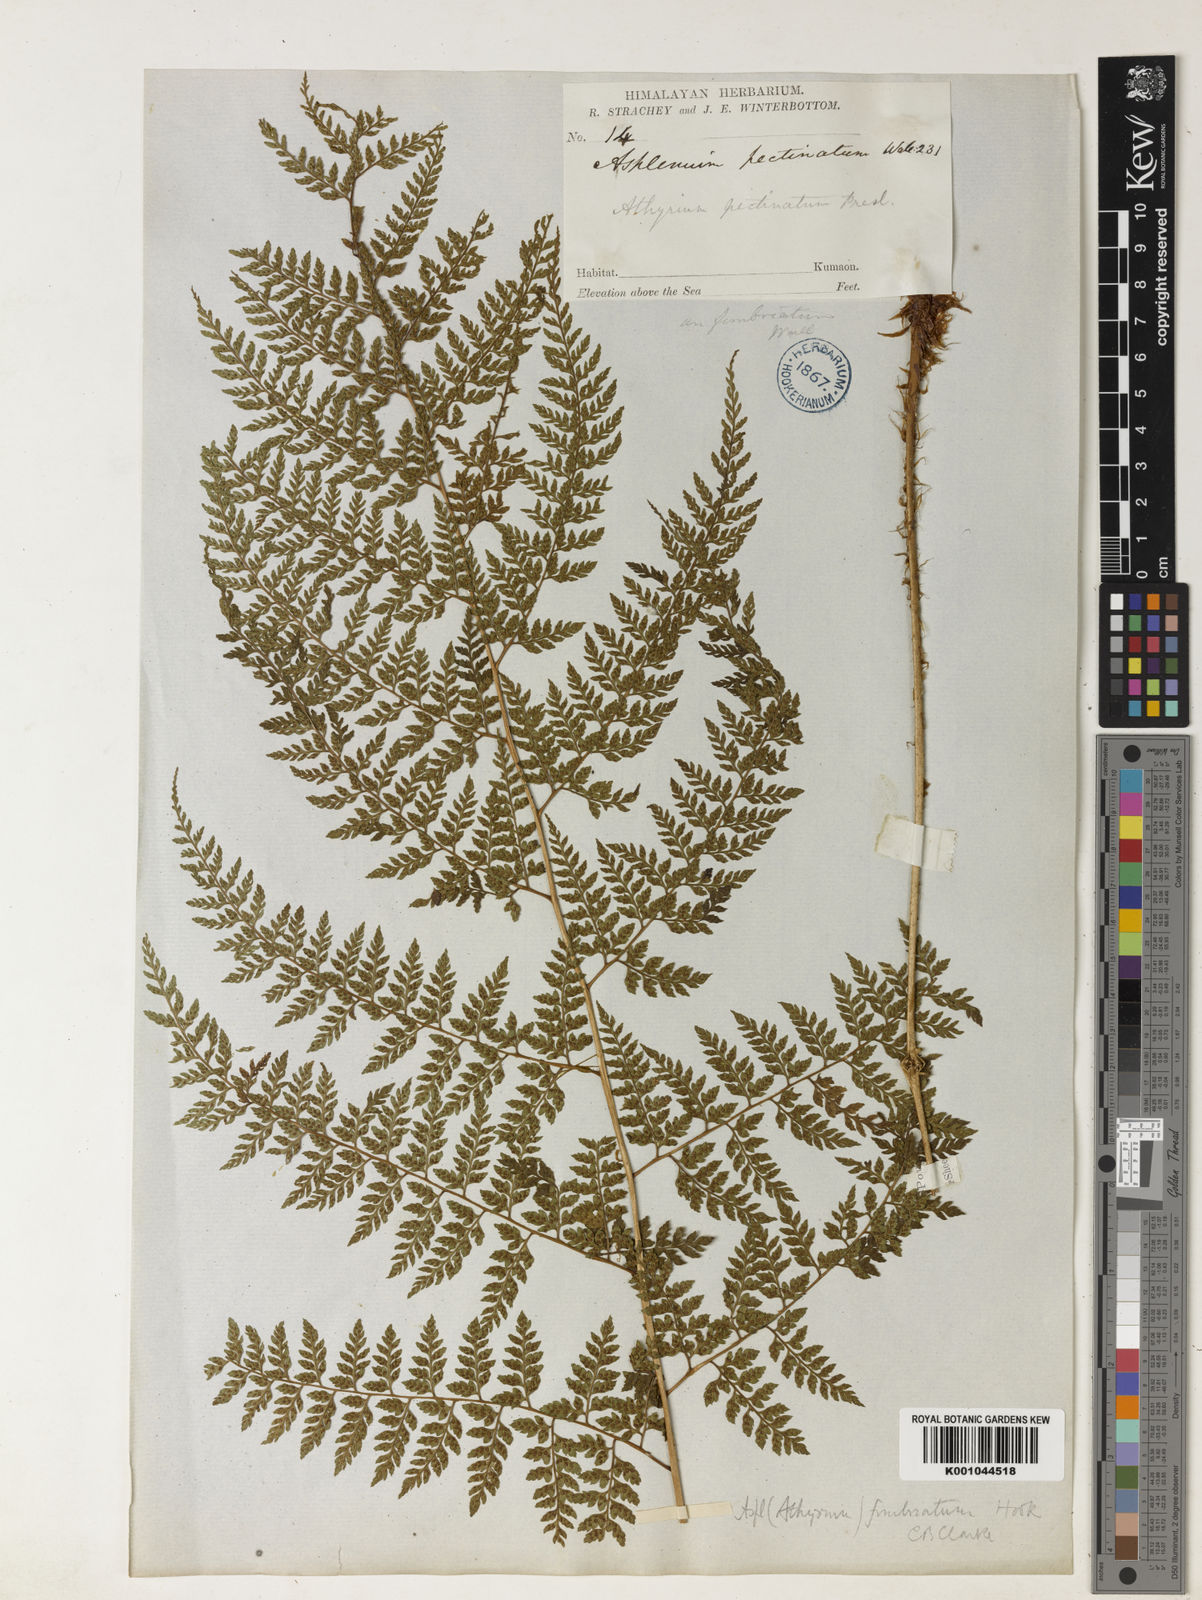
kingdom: Plantae
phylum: Tracheophyta
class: Polypodiopsida
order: Polypodiales
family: Athyriaceae
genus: Athyrium
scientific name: Athyrium fimbriatum
